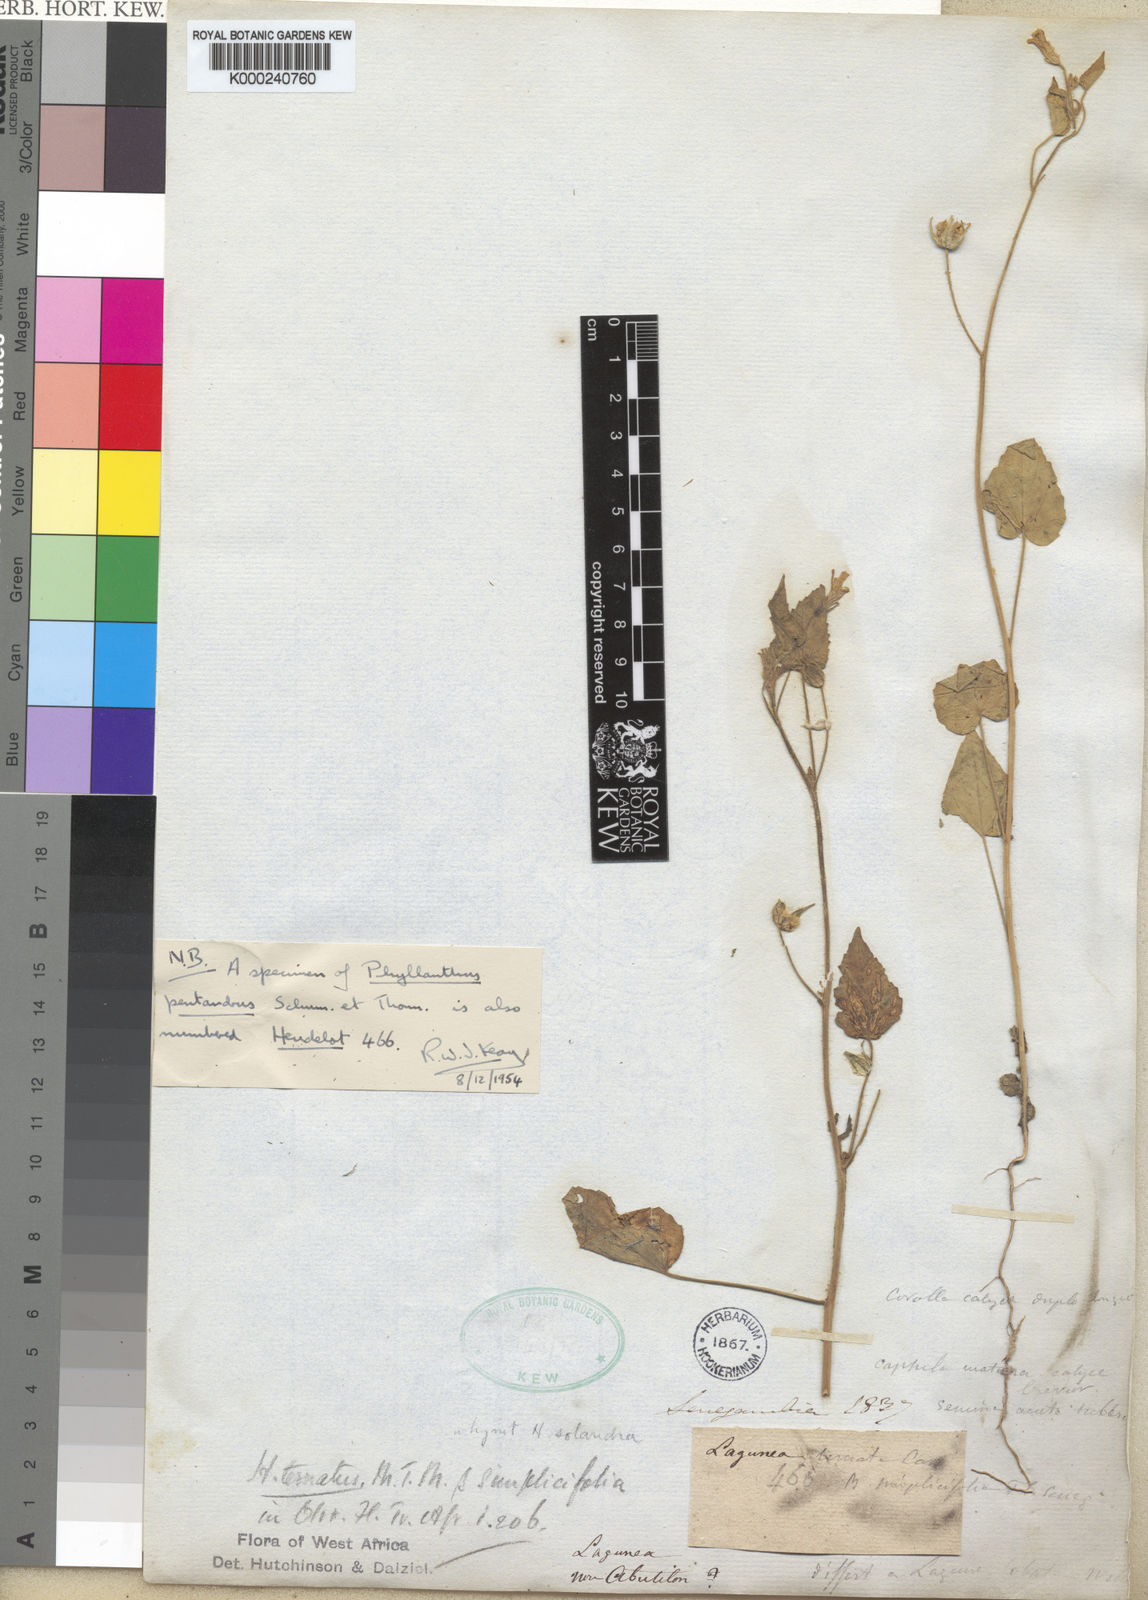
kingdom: Plantae
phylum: Tracheophyta
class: Magnoliopsida
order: Malvales
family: Malvaceae
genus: Hibiscus
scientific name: Hibiscus trionum
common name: Bladder ketmia
